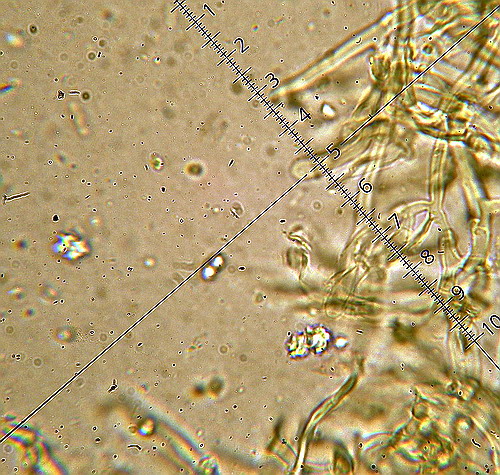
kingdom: Fungi
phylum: Basidiomycota
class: Agaricomycetes
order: Hymenochaetales
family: Schizoporaceae
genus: Xylodon
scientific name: Xylodon nesporii
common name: fintandet tandsvamp
